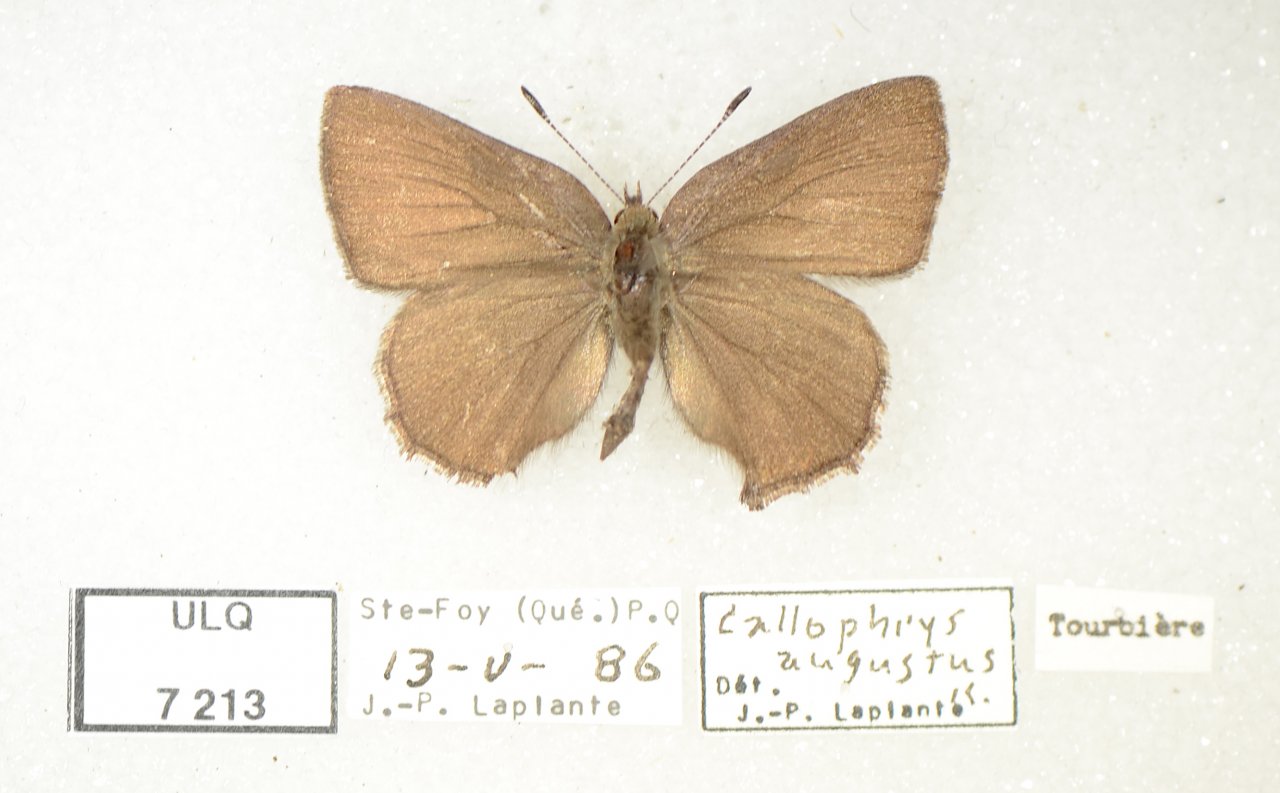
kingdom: Animalia
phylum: Arthropoda
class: Insecta
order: Lepidoptera
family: Lycaenidae
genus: Incisalia
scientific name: Incisalia irioides
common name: Brown Elfin
